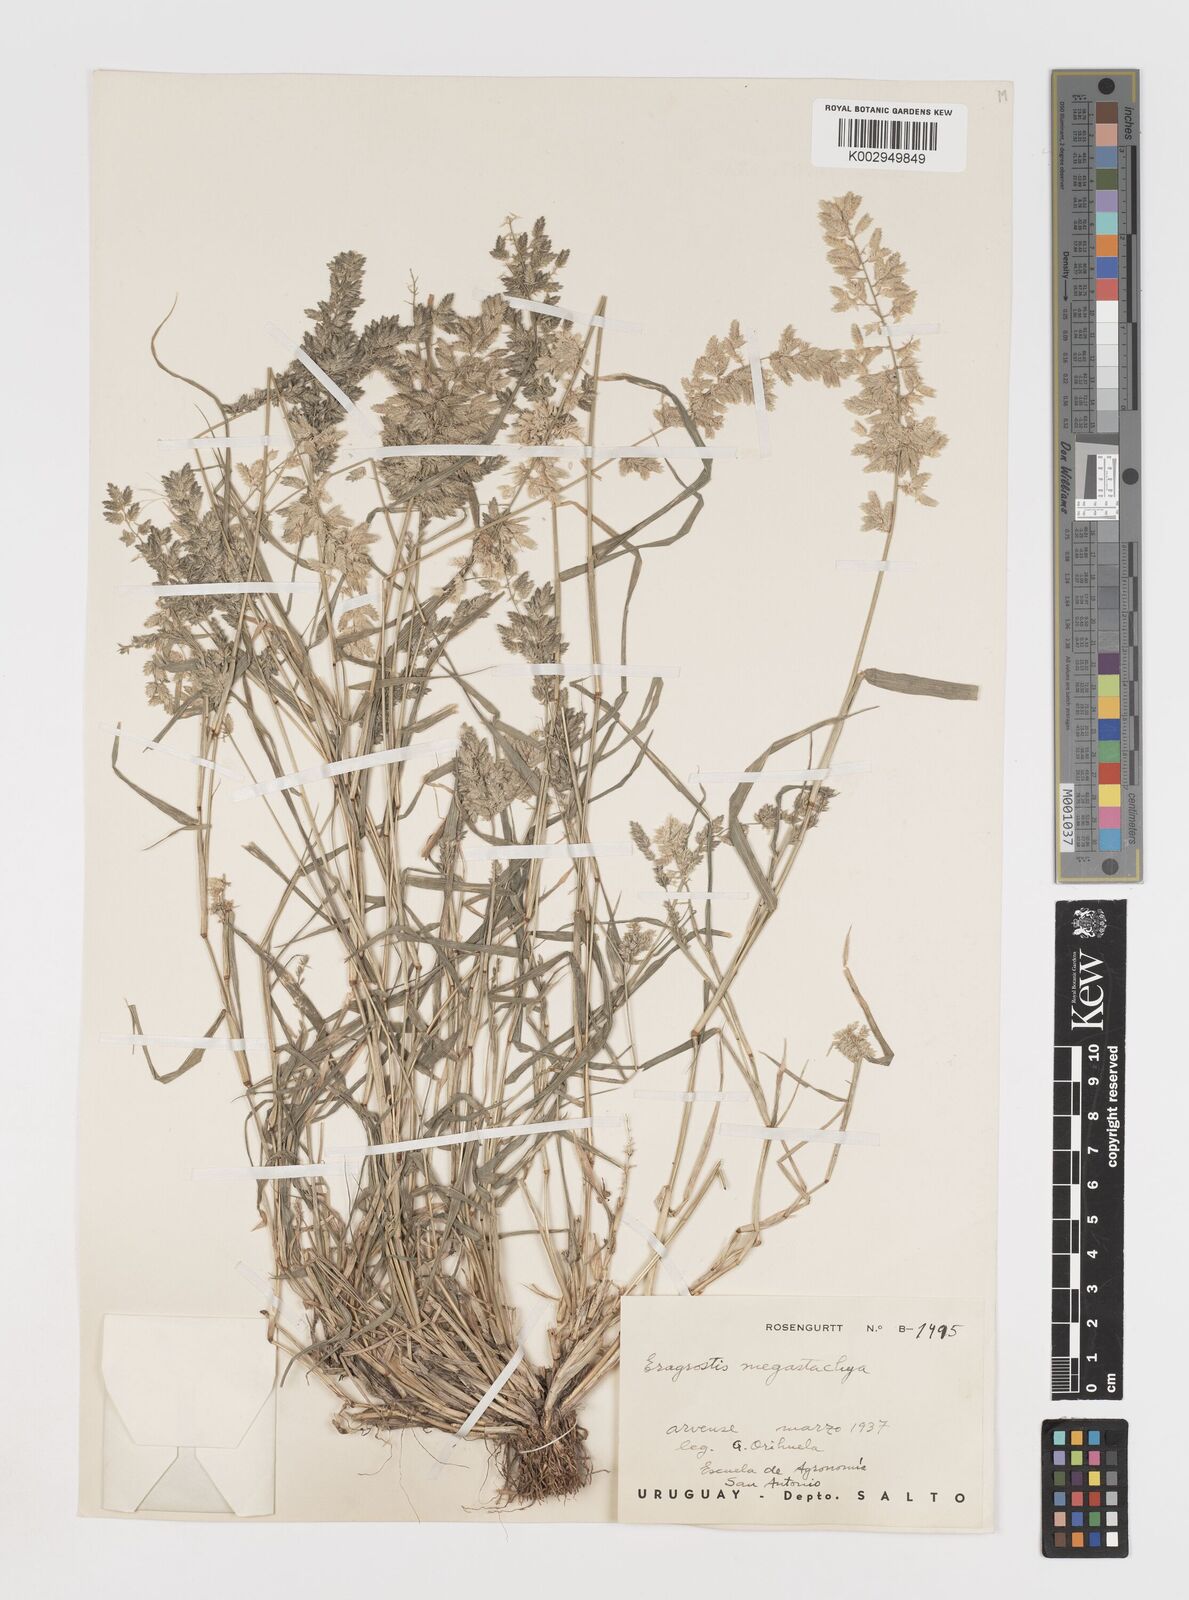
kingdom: Plantae
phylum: Tracheophyta
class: Liliopsida
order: Poales
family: Poaceae
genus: Eragrostis
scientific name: Eragrostis cilianensis
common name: Stinkgrass
